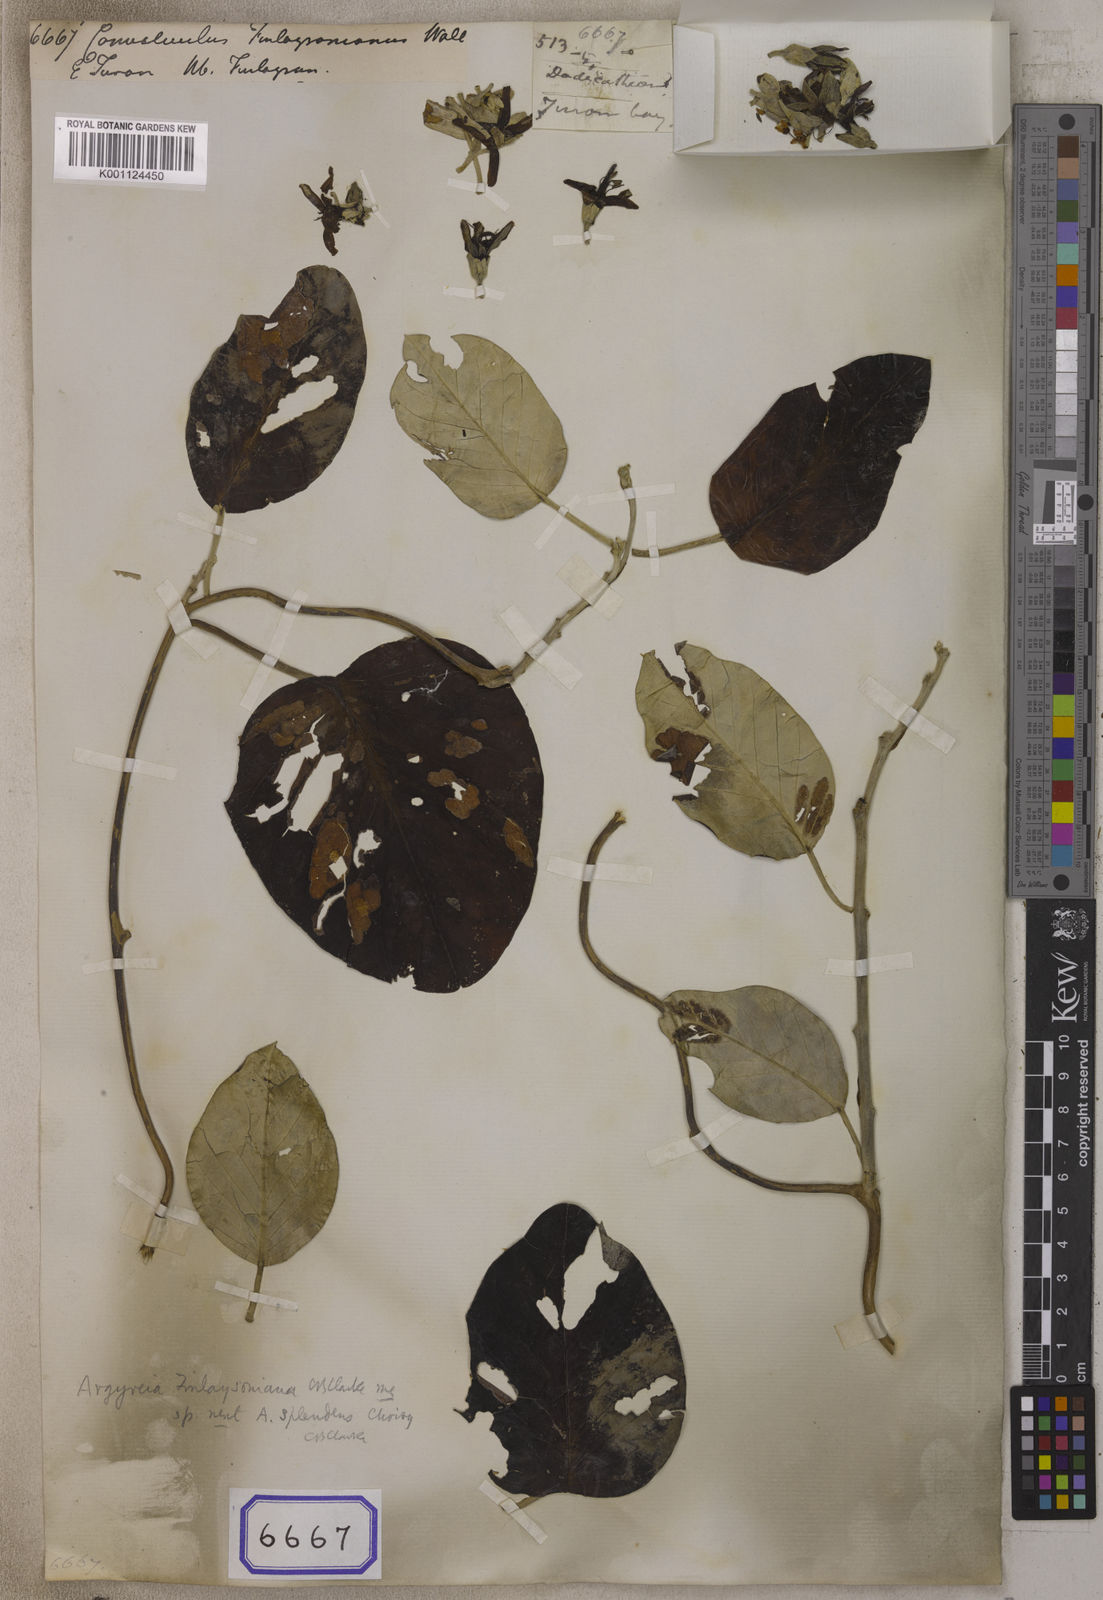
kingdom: Plantae
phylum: Tracheophyta
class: Magnoliopsida
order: Solanales
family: Convolvulaceae
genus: Argyreia
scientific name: Argyreia obtusifolia
